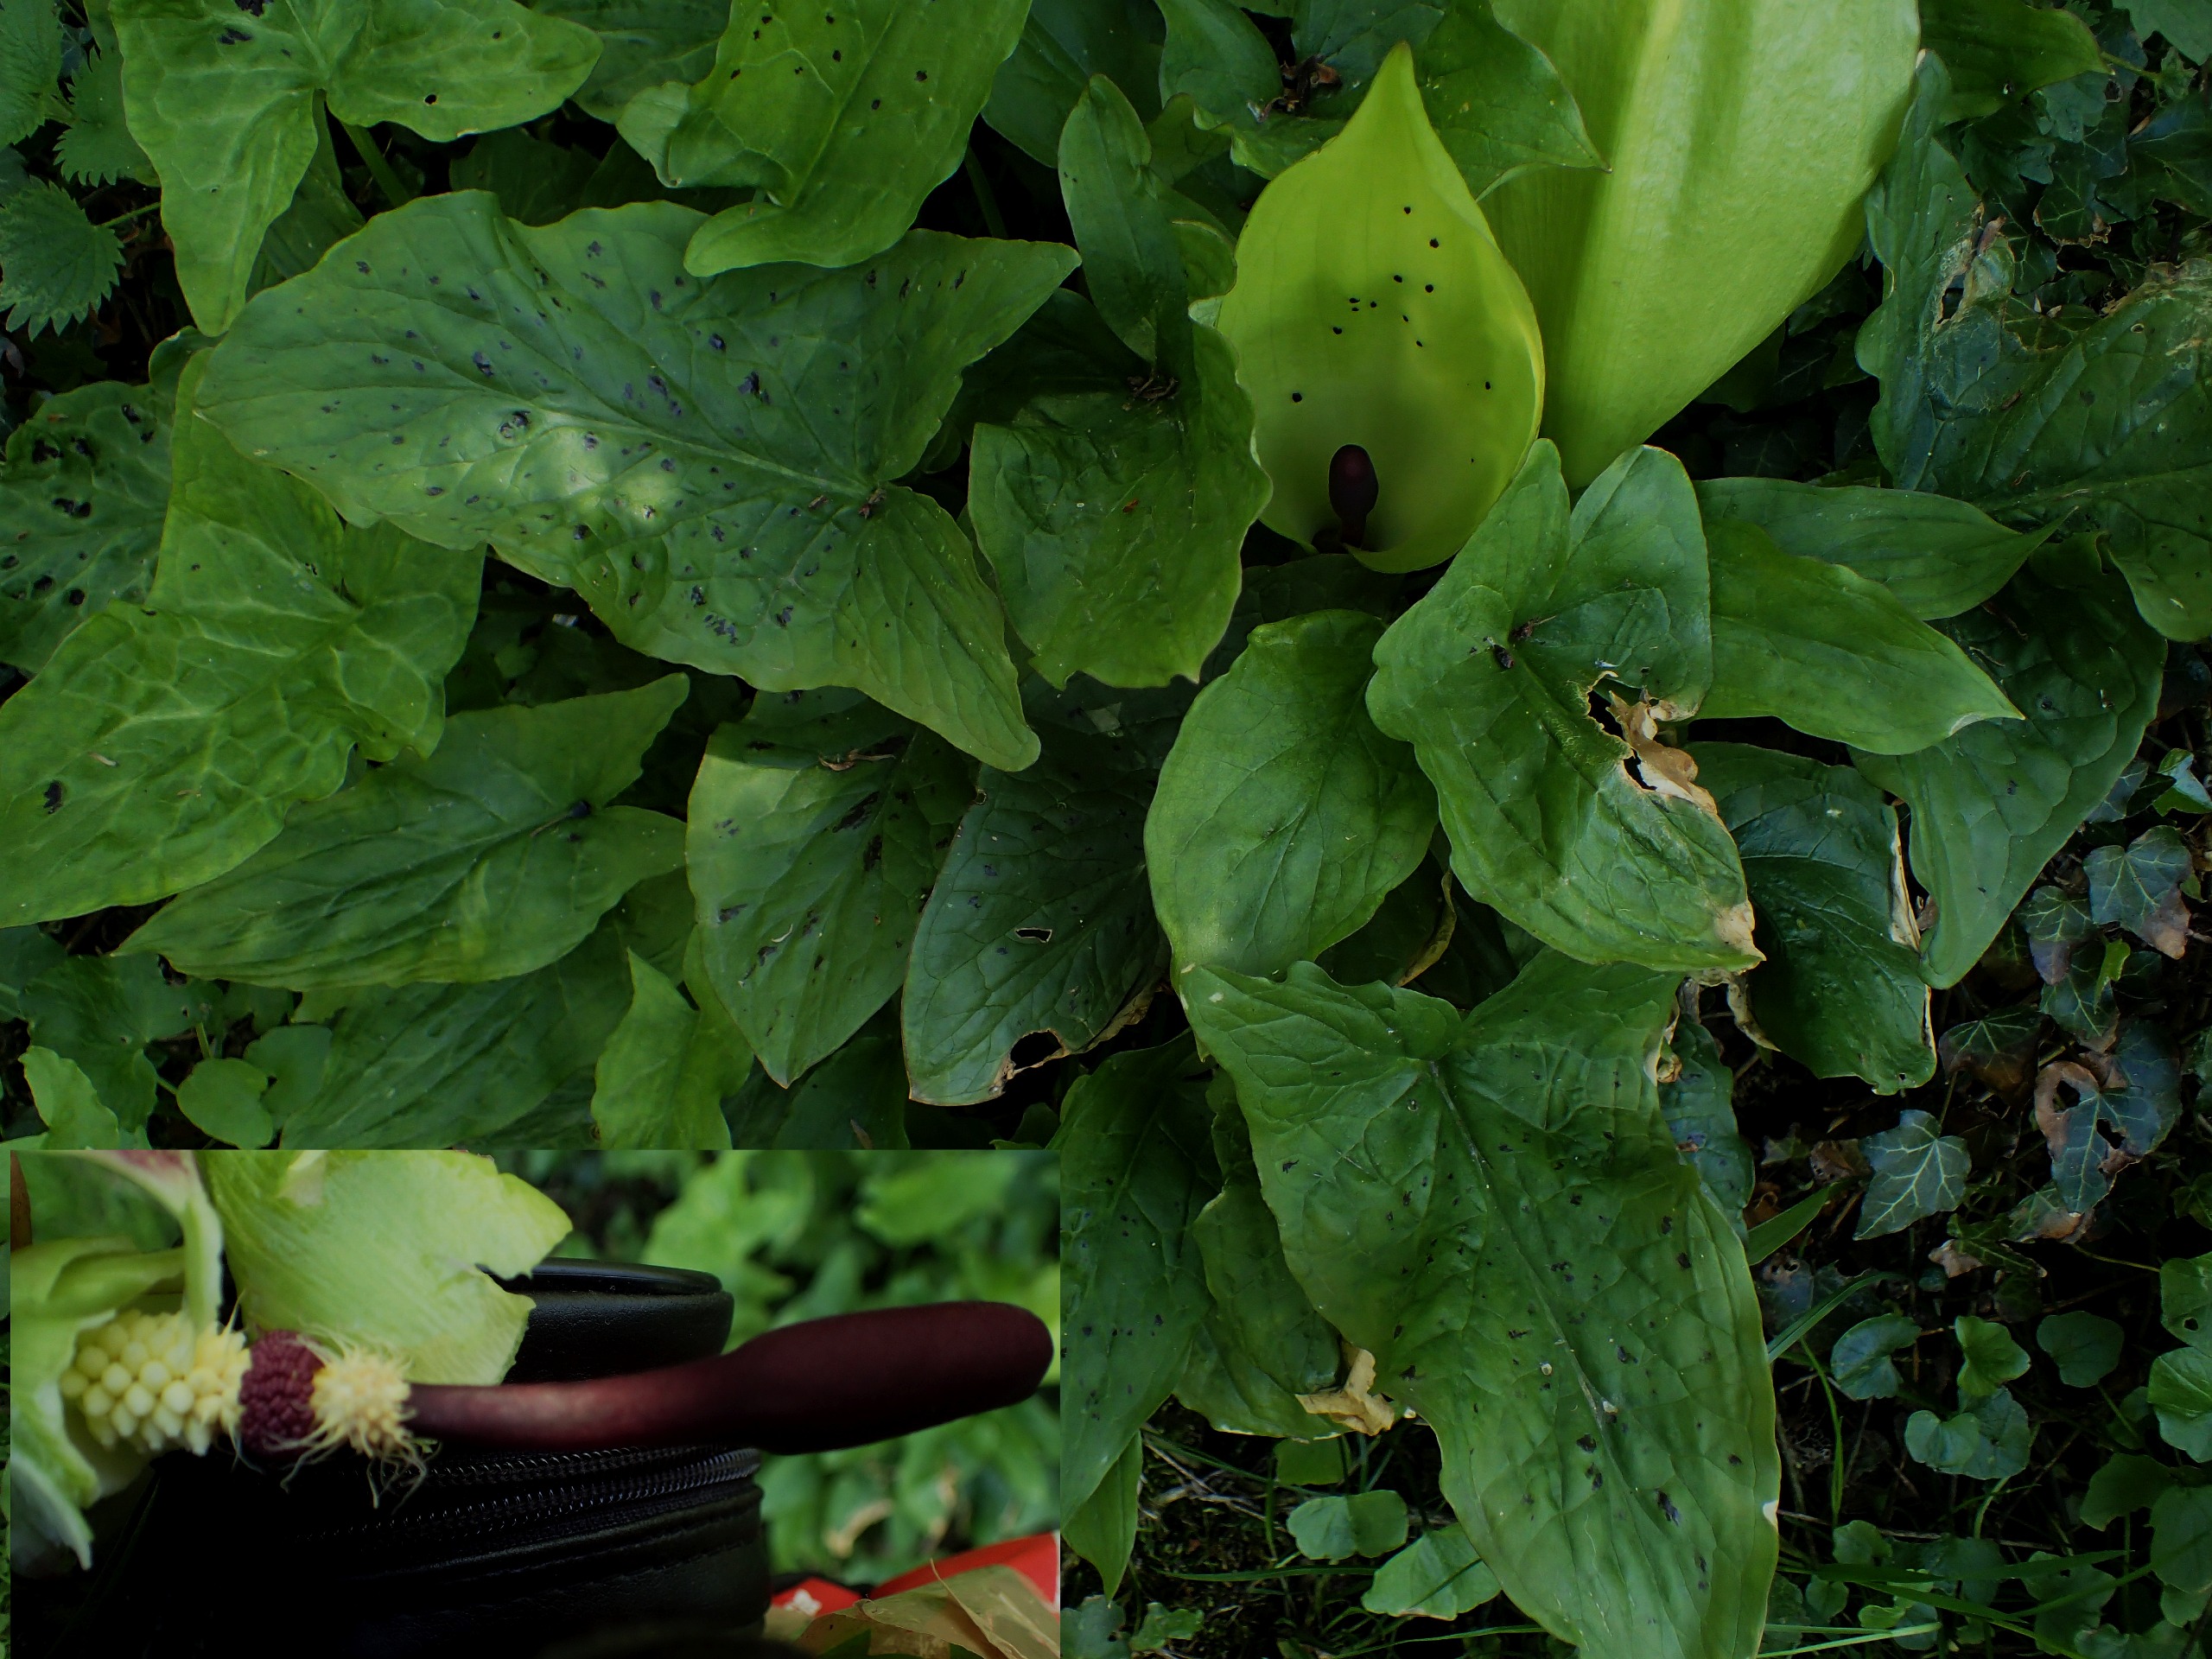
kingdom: Plantae
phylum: Tracheophyta
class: Liliopsida
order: Alismatales
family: Araceae
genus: Arum
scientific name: Arum maculatum
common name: Plettet arum
